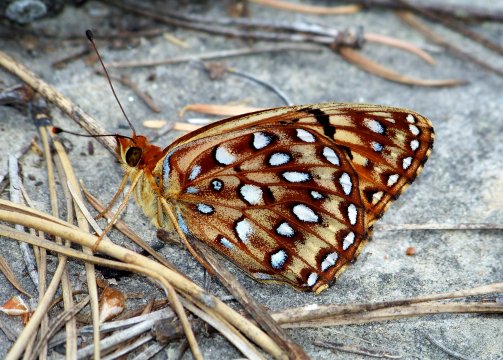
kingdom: Animalia
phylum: Arthropoda
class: Insecta
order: Lepidoptera
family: Nymphalidae
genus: Speyeria
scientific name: Speyeria atlantis
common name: Northwestern Fritillary
